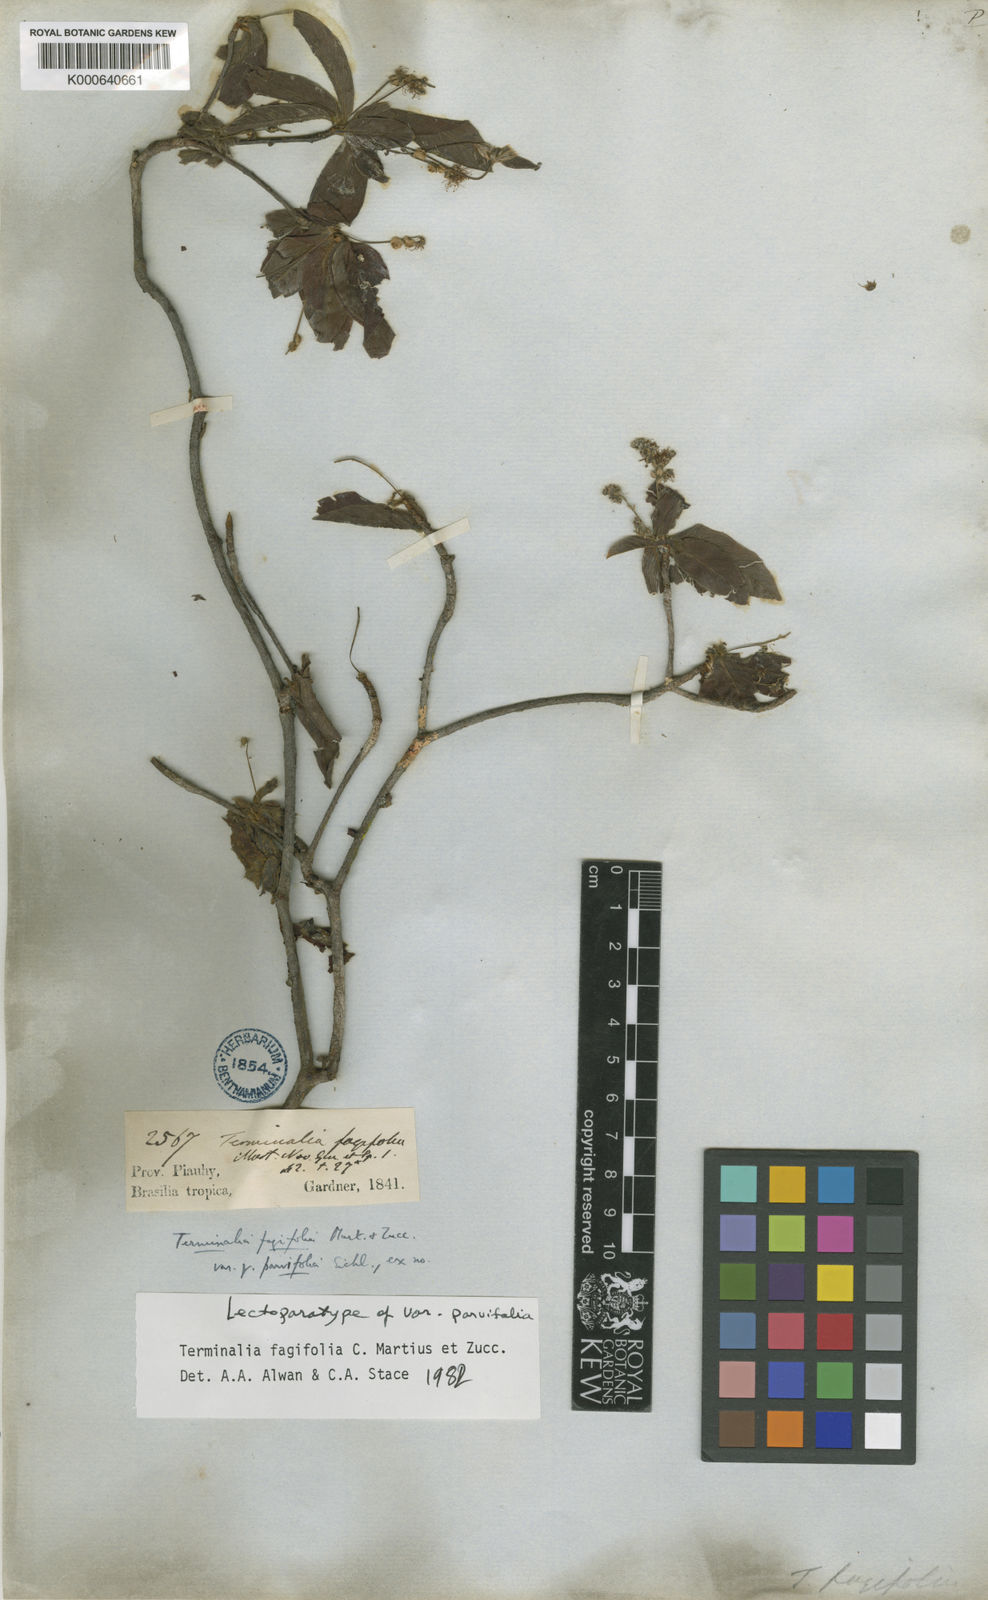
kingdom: Plantae
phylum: Tracheophyta
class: Magnoliopsida
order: Myrtales
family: Combretaceae
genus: Terminalia
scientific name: Terminalia fagifolia
